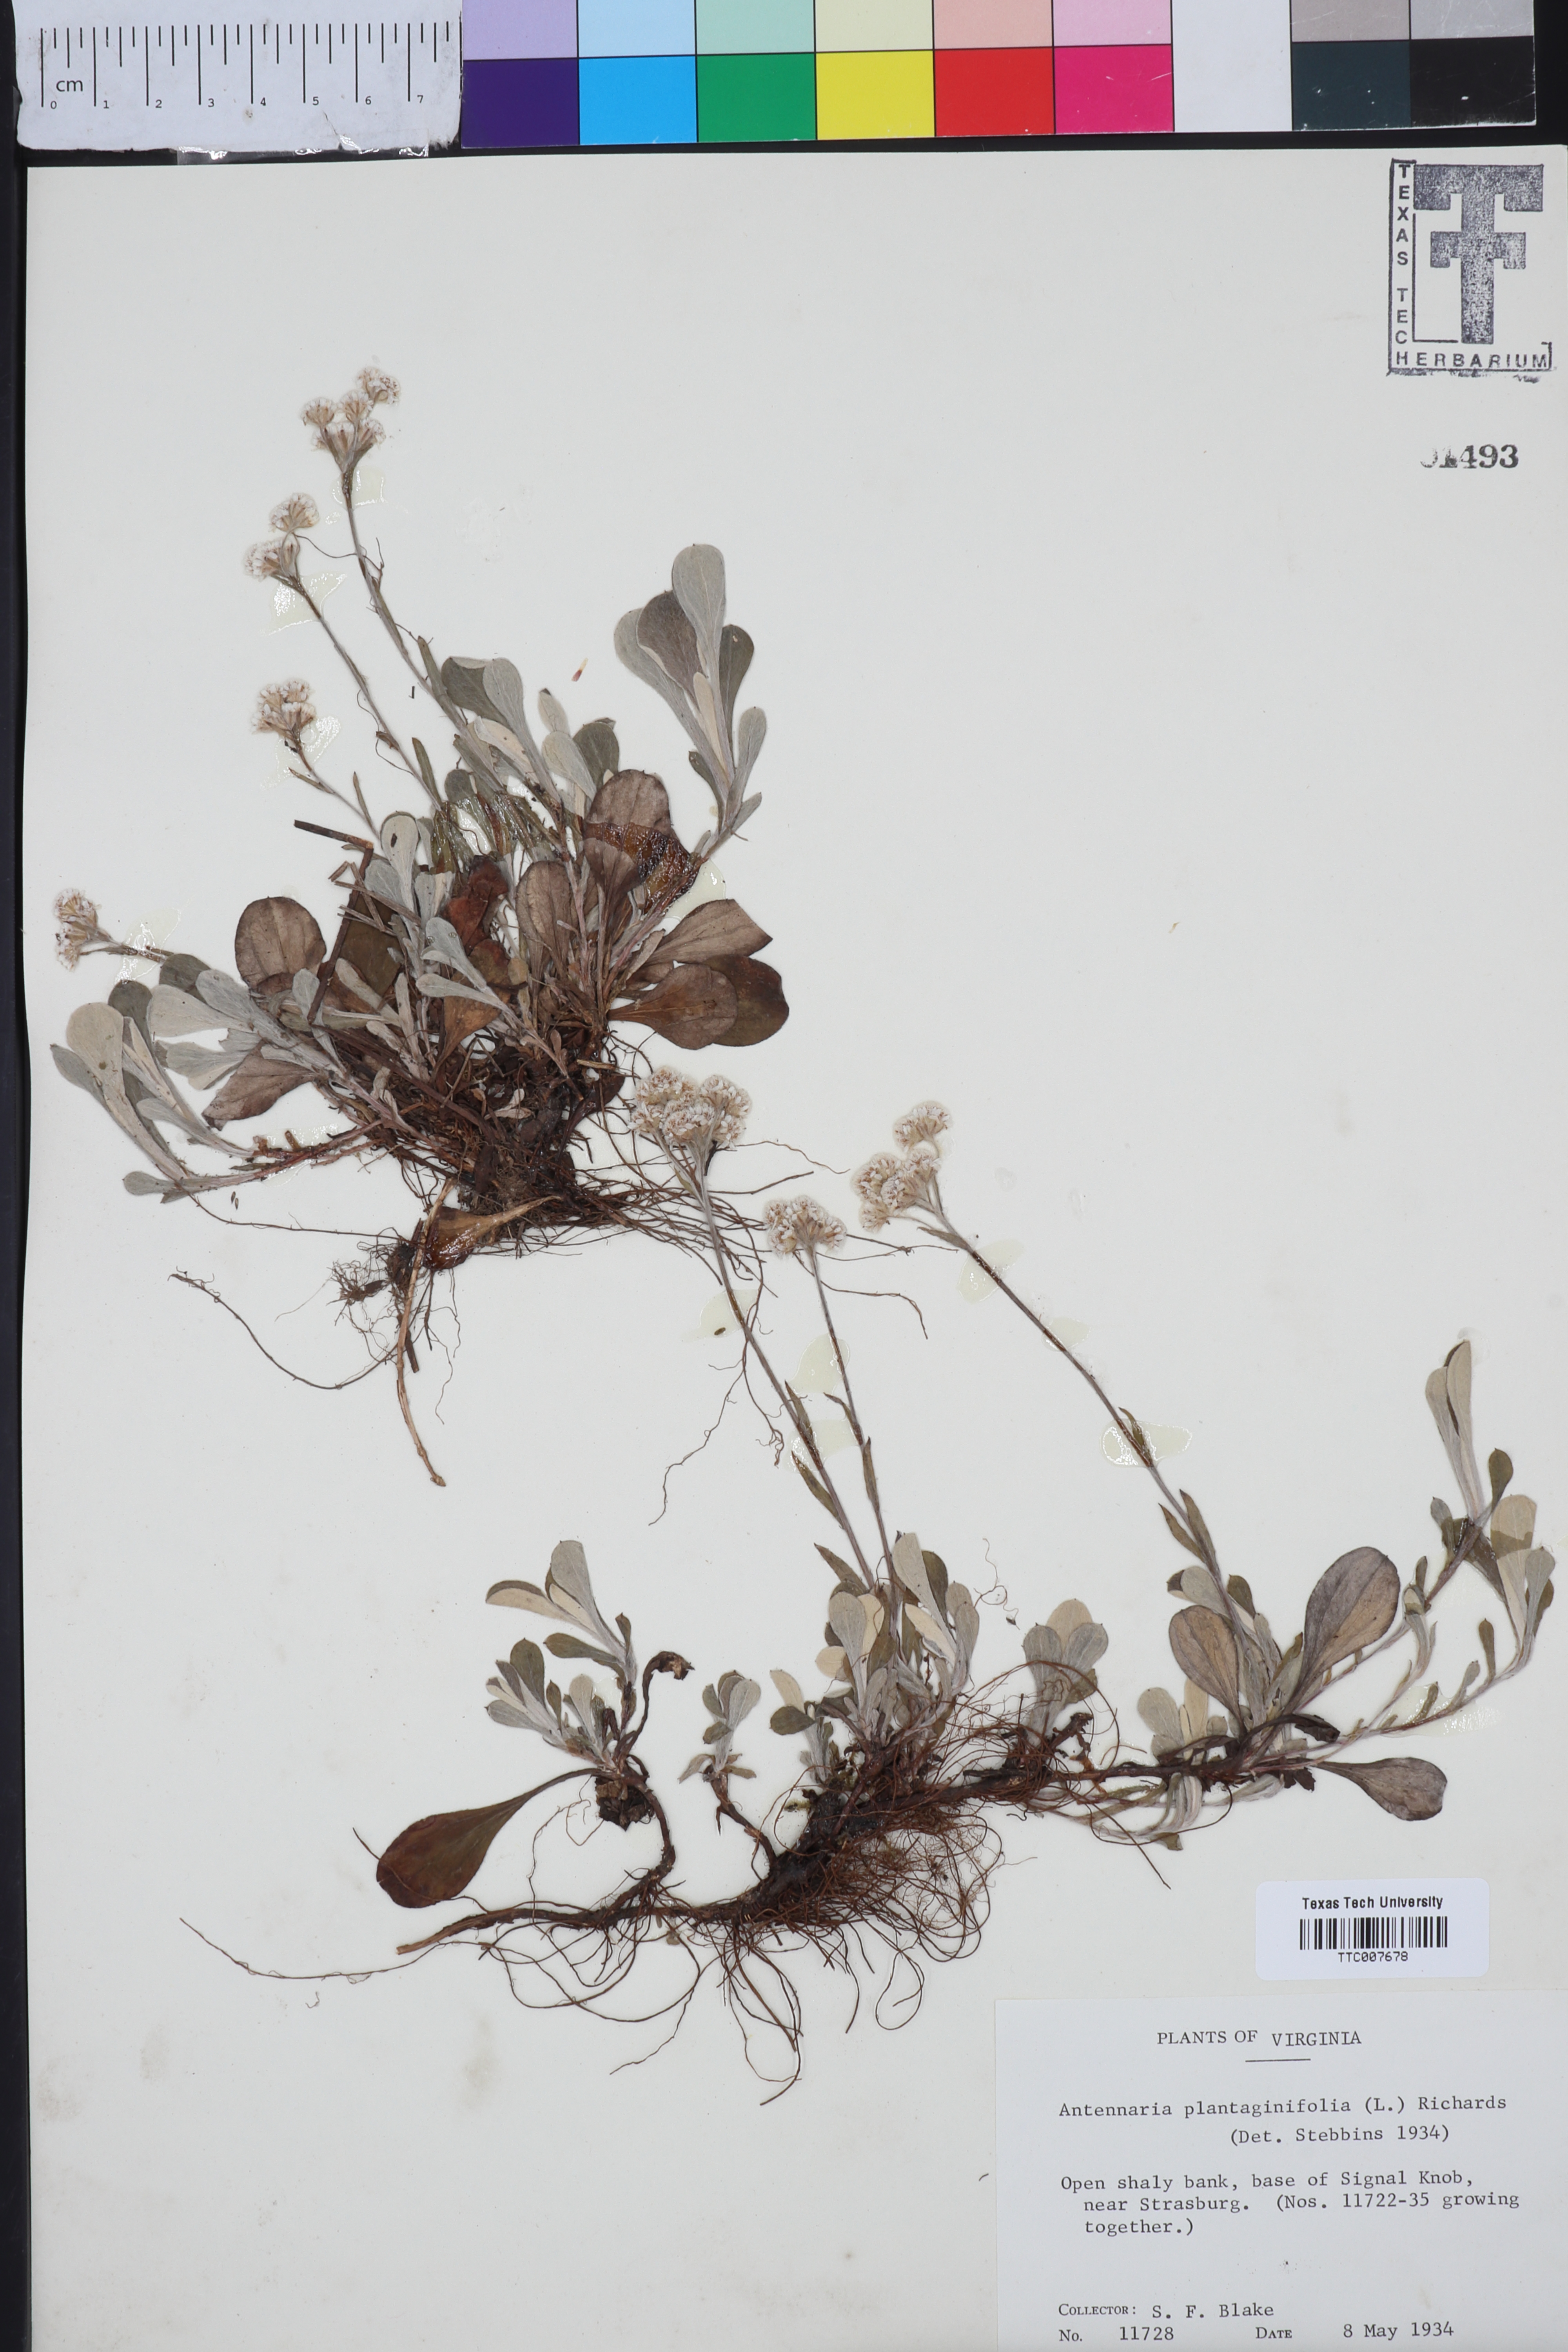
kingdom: Plantae
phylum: Tracheophyta
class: Magnoliopsida
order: Asterales
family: Asteraceae
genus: Antennaria
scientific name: Antennaria plantaginifolia
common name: Plantain-leaved pussytoes
